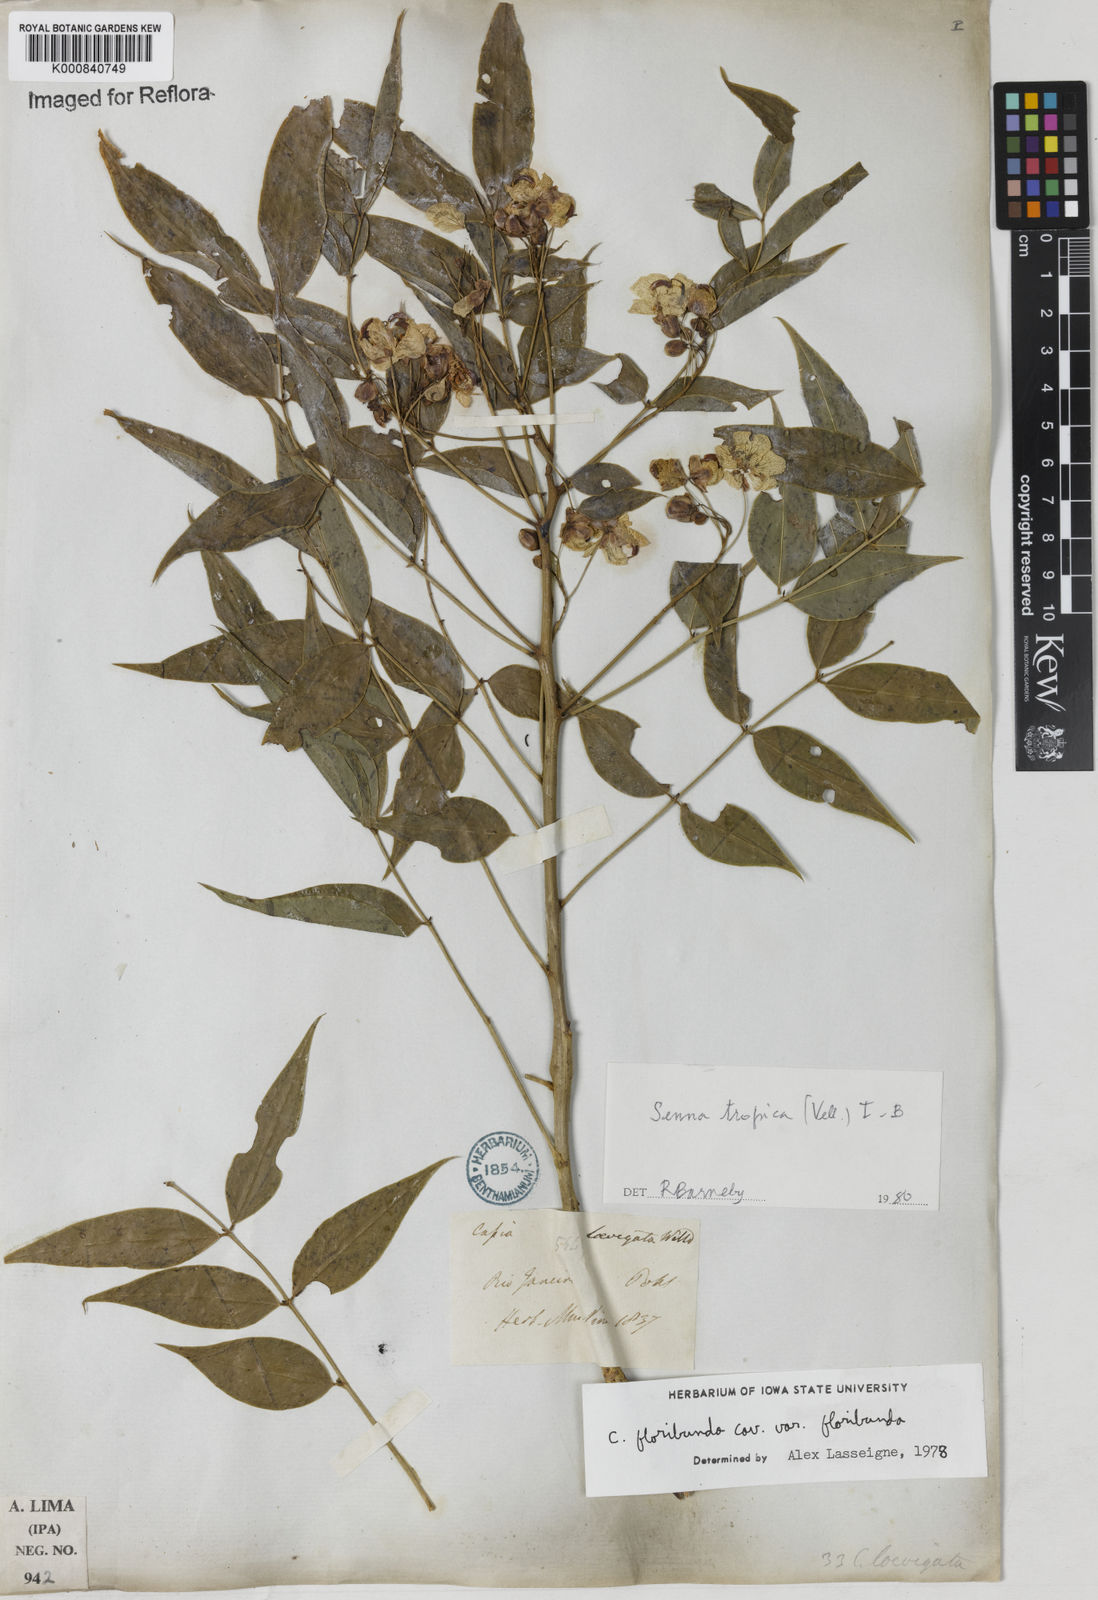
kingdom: Plantae
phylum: Tracheophyta
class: Magnoliopsida
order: Fabales
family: Fabaceae
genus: Senna
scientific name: Senna tropica
